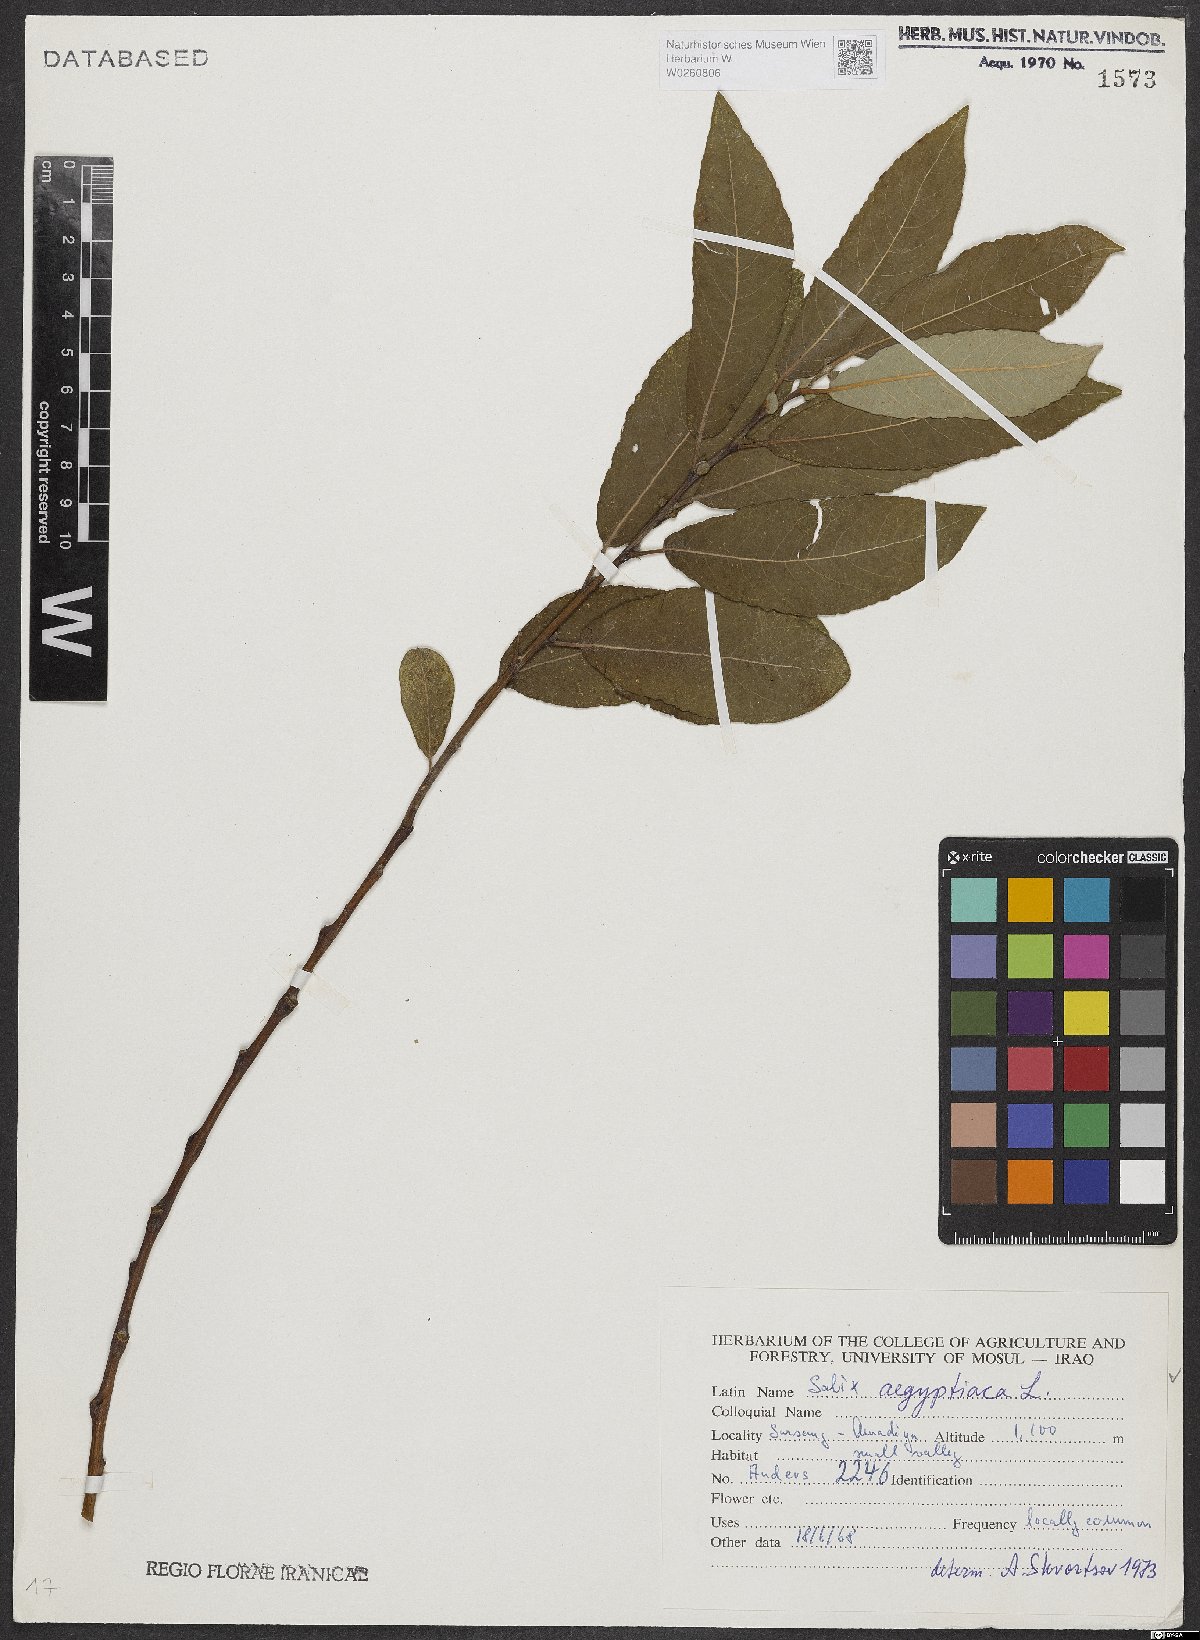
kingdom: Plantae
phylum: Tracheophyta
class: Magnoliopsida
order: Malpighiales
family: Salicaceae
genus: Salix
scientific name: Salix aegyptiaca
